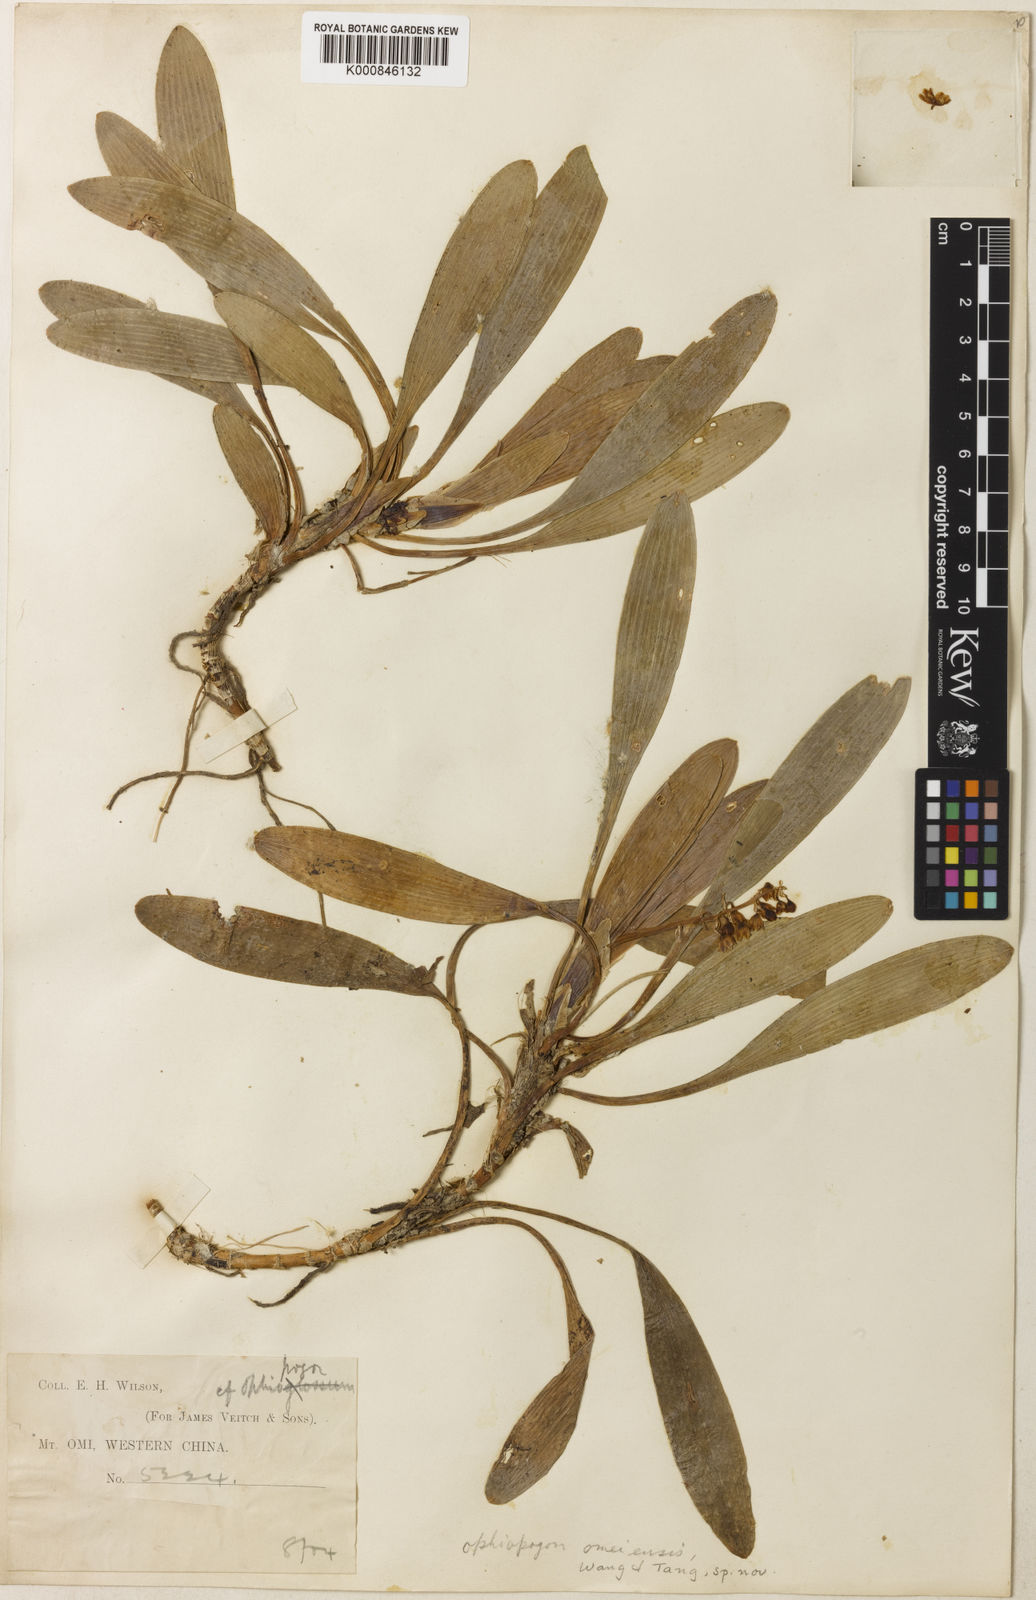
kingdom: Plantae
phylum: Tracheophyta
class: Liliopsida
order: Asparagales
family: Asparagaceae
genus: Ophiopogon
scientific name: Ophiopogon
